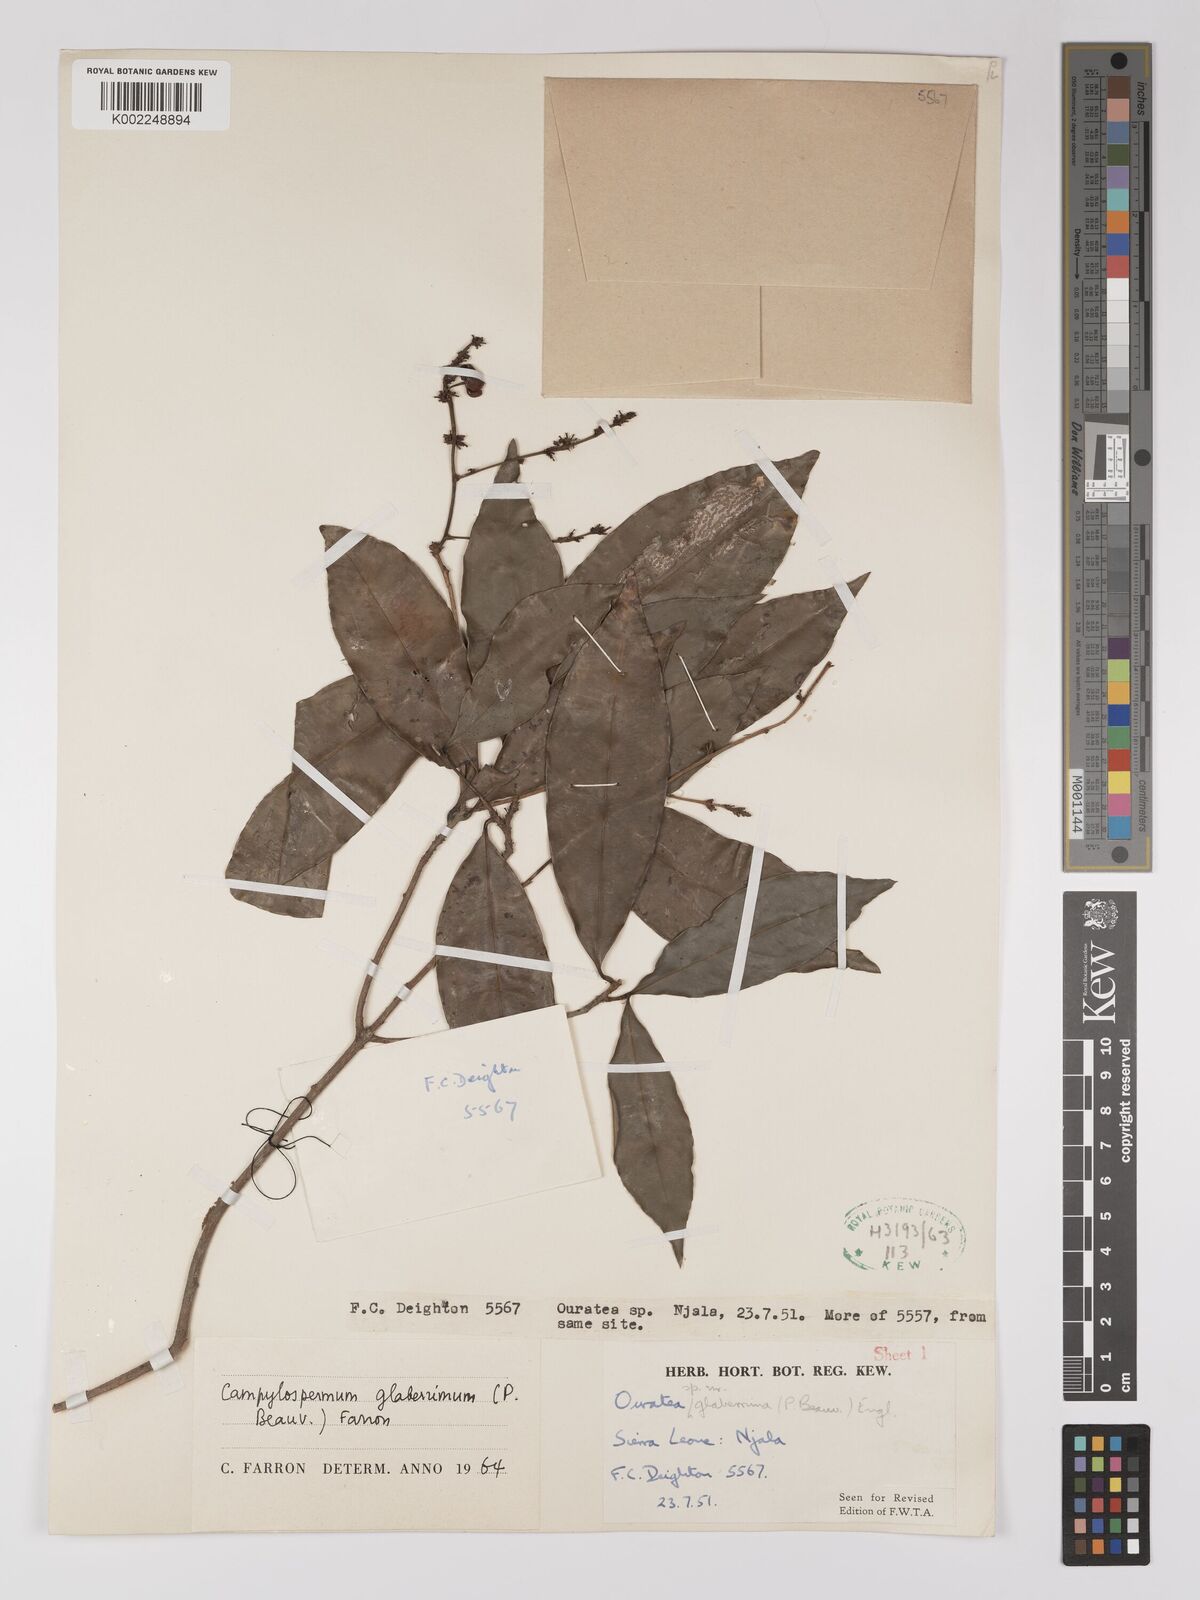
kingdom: Plantae
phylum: Tracheophyta
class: Magnoliopsida
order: Malpighiales
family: Ochnaceae
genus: Campylospermum
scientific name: Campylospermum glaberrimum
